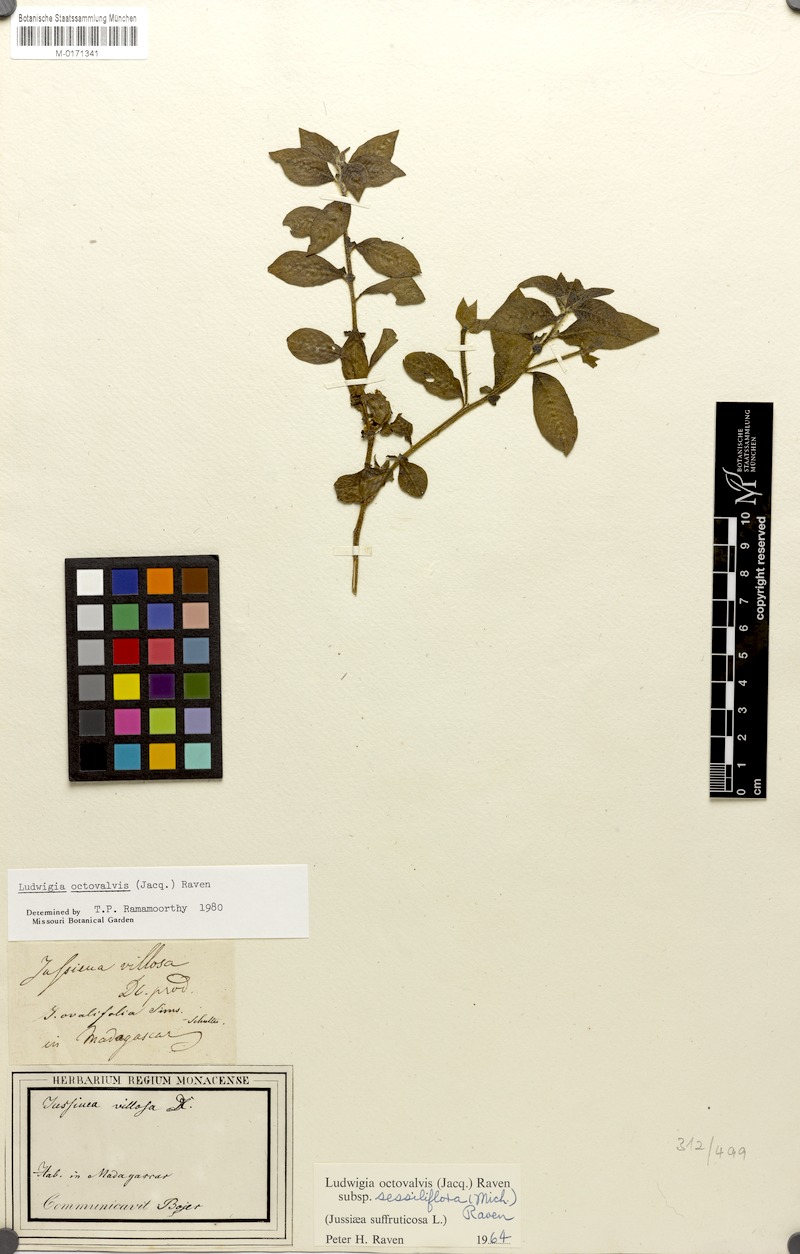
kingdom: Plantae
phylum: Tracheophyta
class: Magnoliopsida
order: Myrtales
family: Onagraceae
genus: Ludwigia
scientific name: Ludwigia octovalvis
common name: Water-primrose
